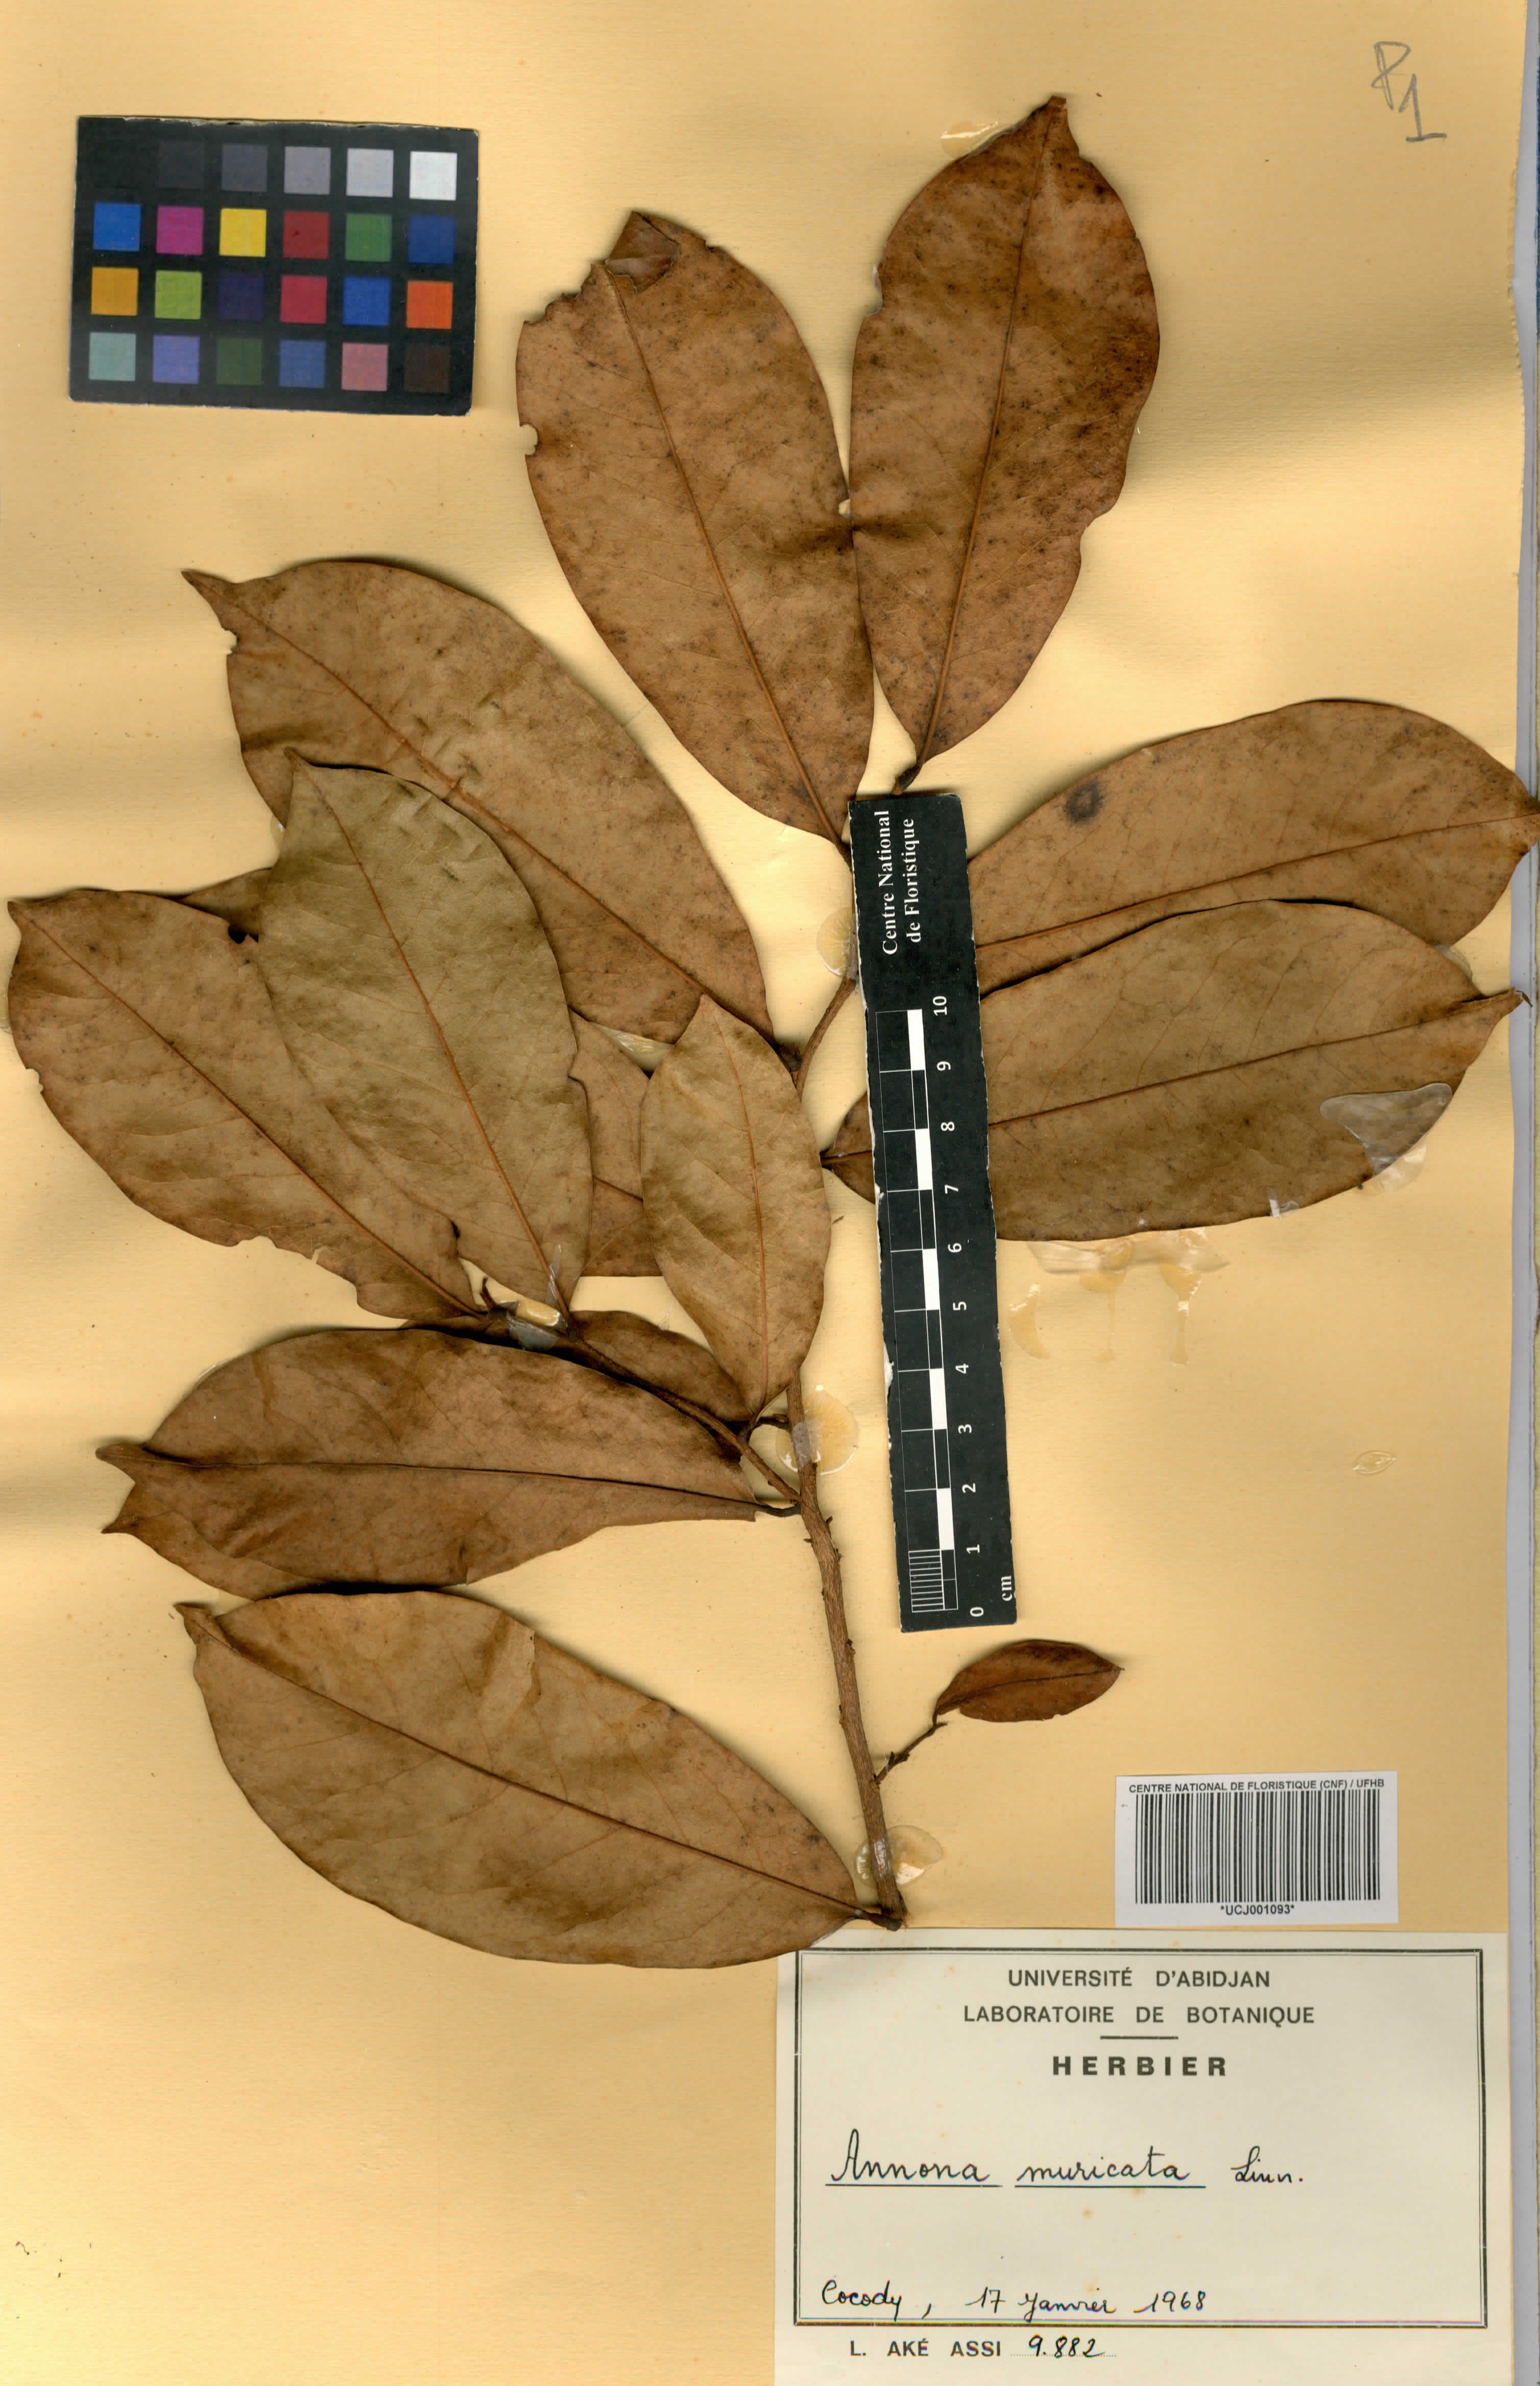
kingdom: Plantae
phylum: Tracheophyta
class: Magnoliopsida
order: Magnoliales
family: Annonaceae
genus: Annona
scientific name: Annona muricata
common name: Soursop
